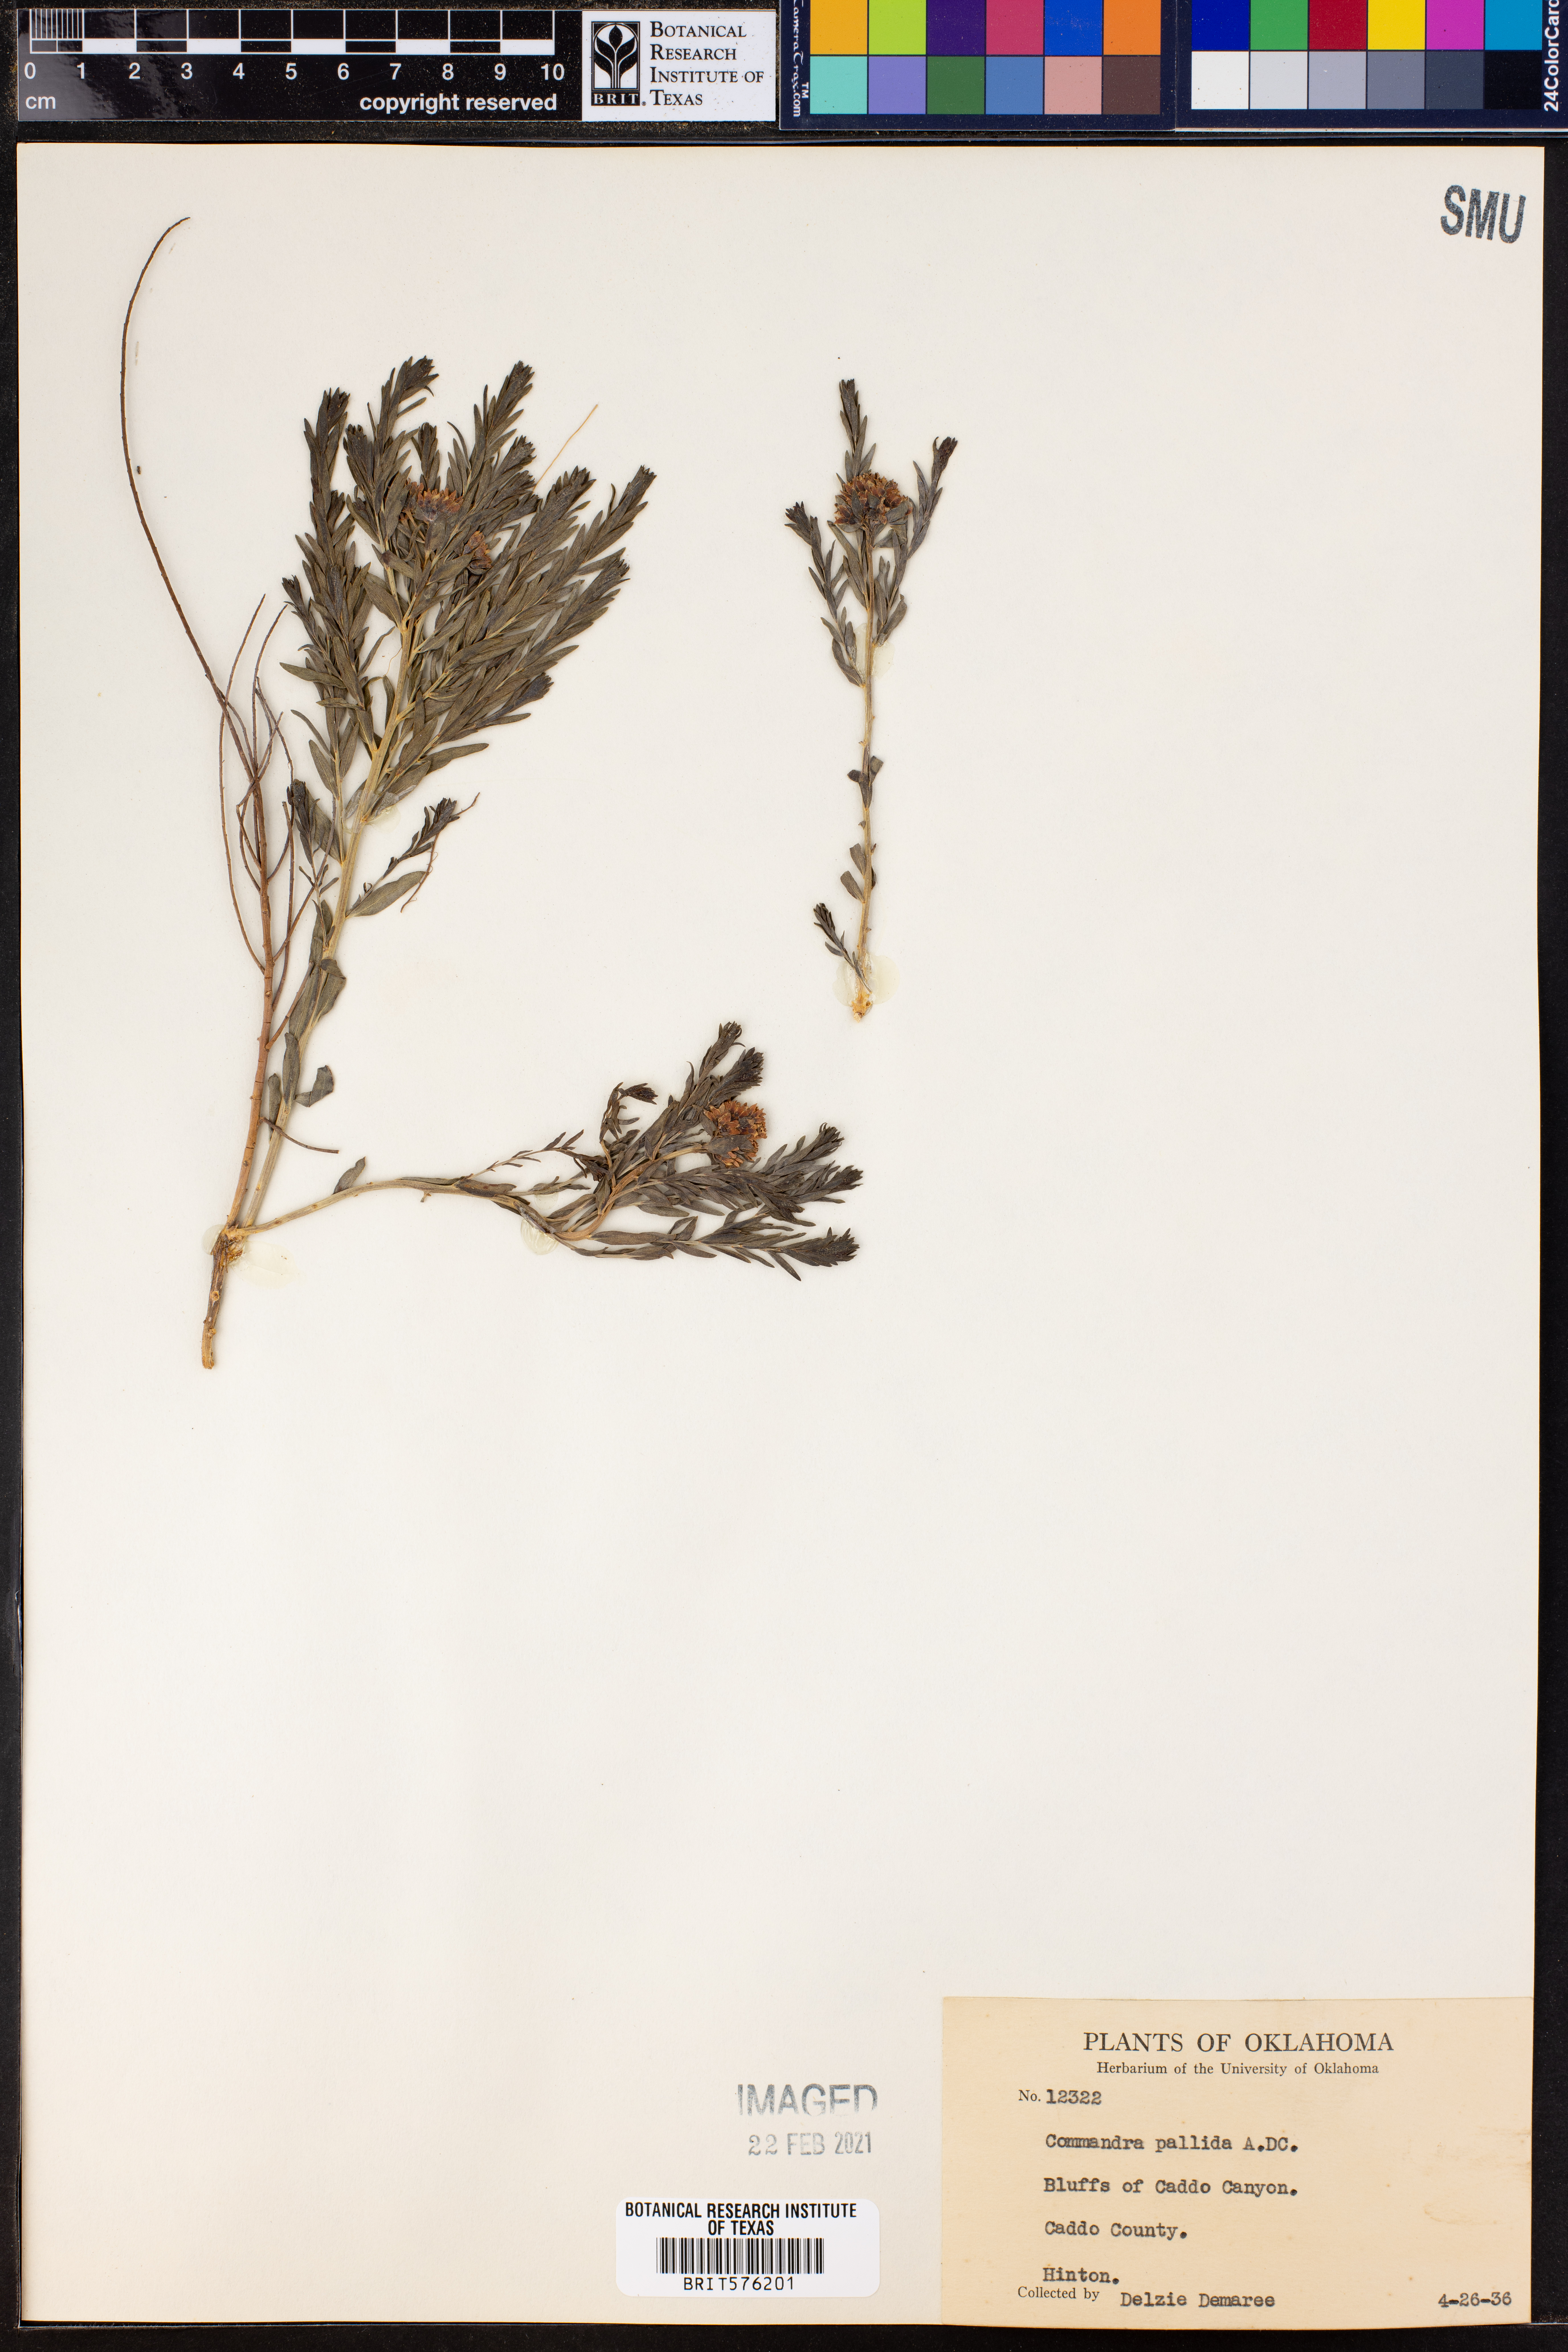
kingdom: Plantae
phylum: Tracheophyta
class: Magnoliopsida
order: Santalales
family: Comandraceae
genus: Comandra
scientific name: Comandra umbellata
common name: Bastard toadflax
